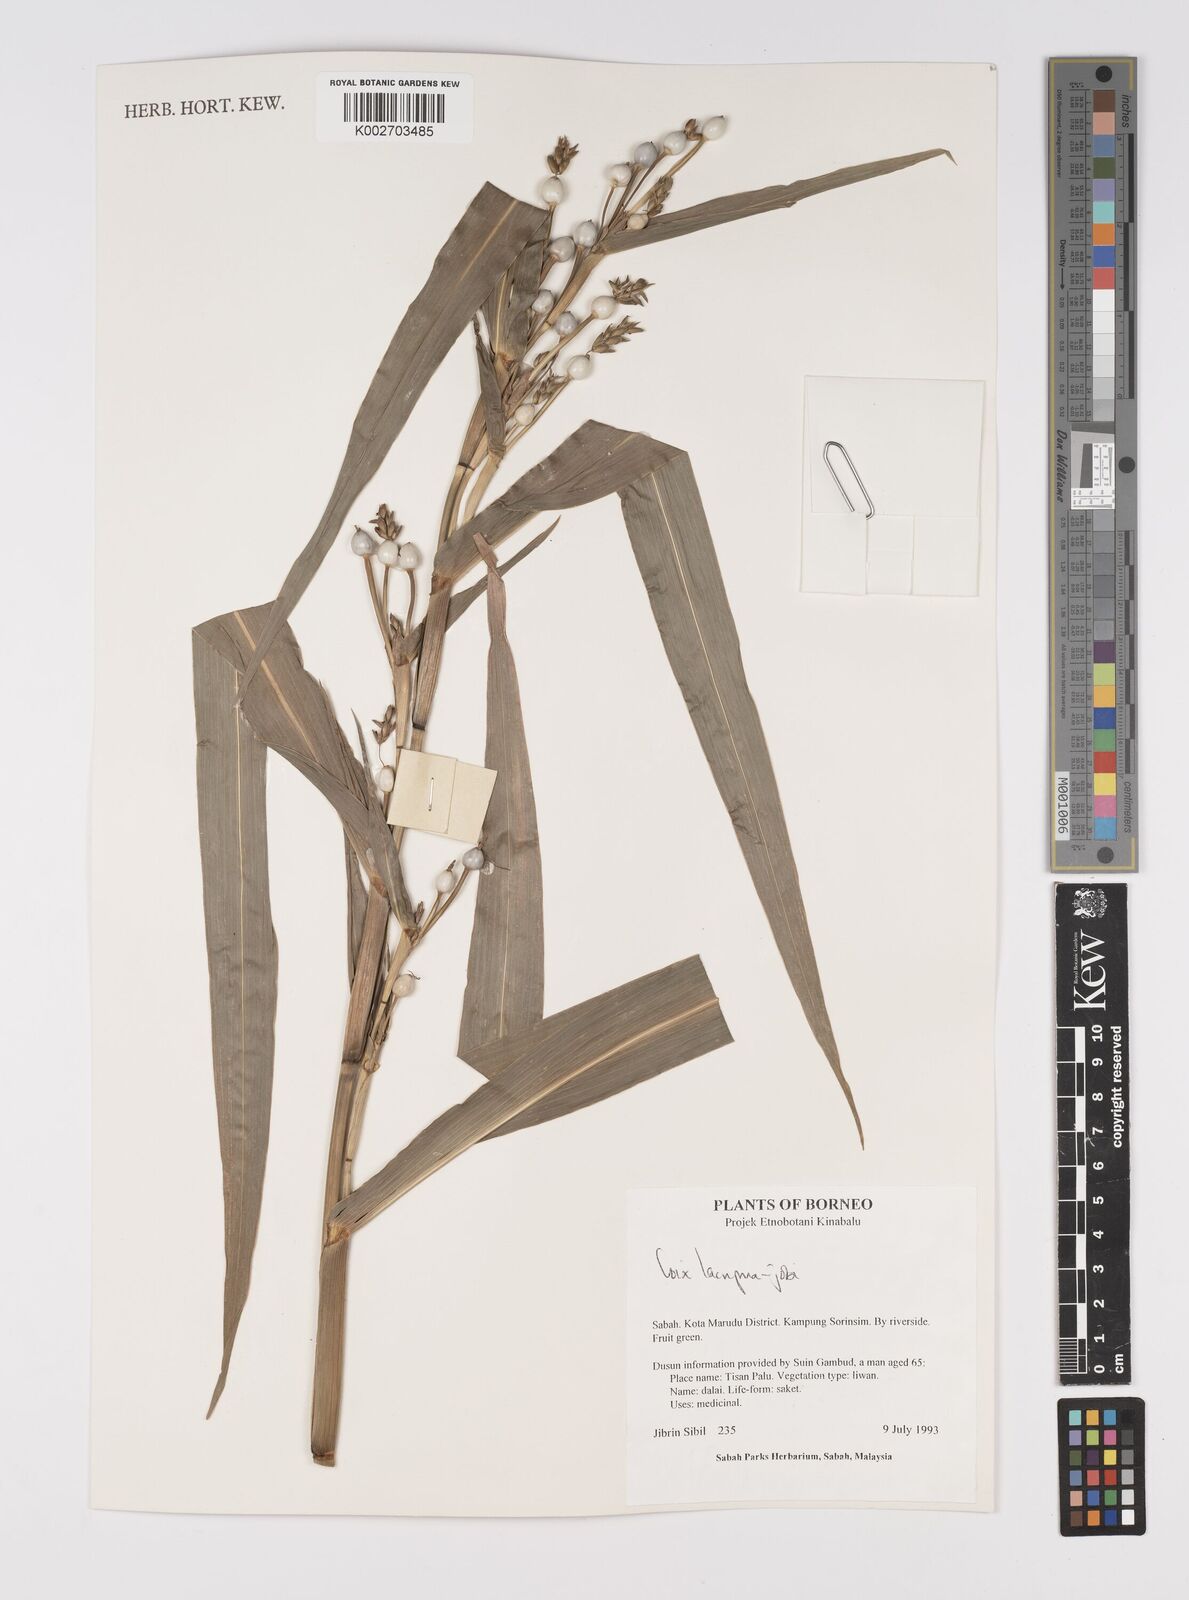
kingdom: Plantae
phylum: Tracheophyta
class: Liliopsida
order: Poales
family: Poaceae
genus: Coix
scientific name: Coix lacryma-jobi
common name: Job's tears
